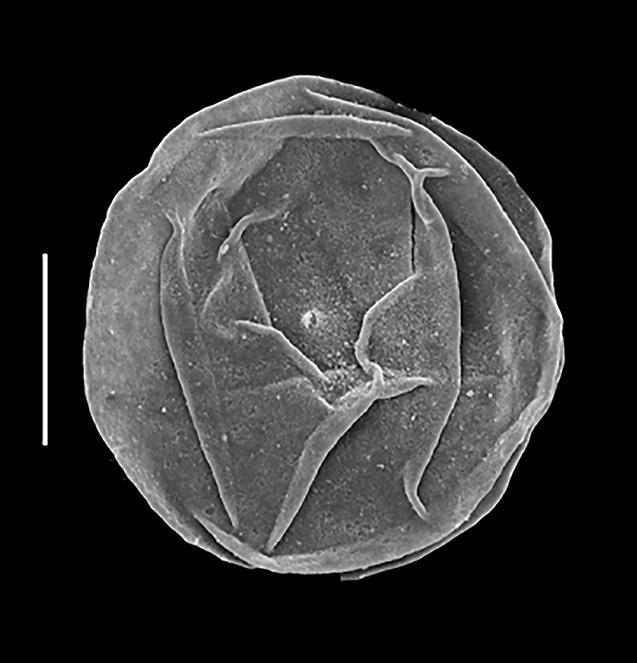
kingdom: Chromista
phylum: Myzozoa
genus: Leiosphaeridia
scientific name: Leiosphaeridia
